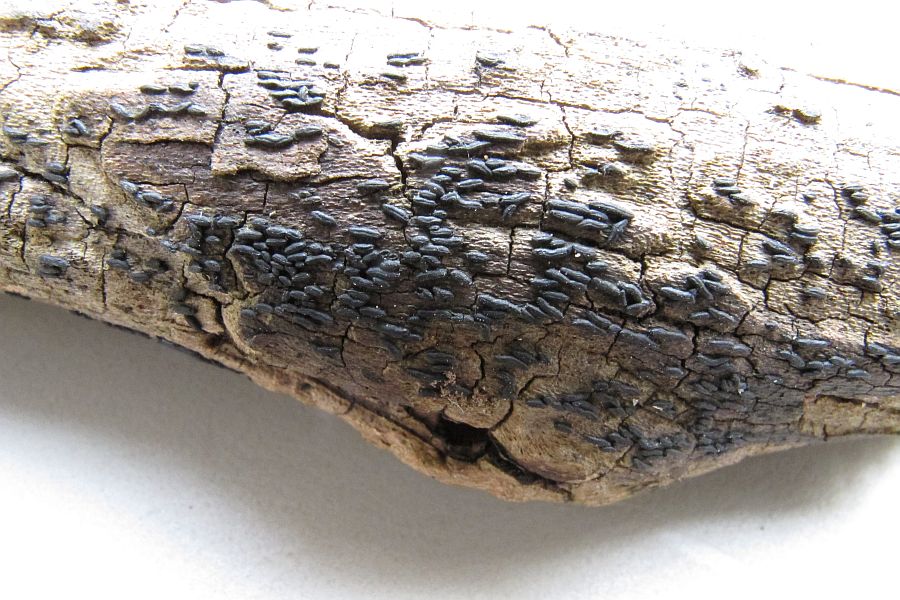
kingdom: Fungi
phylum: Ascomycota
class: Dothideomycetes
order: Hysteriales
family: Hysteriaceae
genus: Hysterium
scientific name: Hysterium acuminatum
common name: almindelig kulmund
